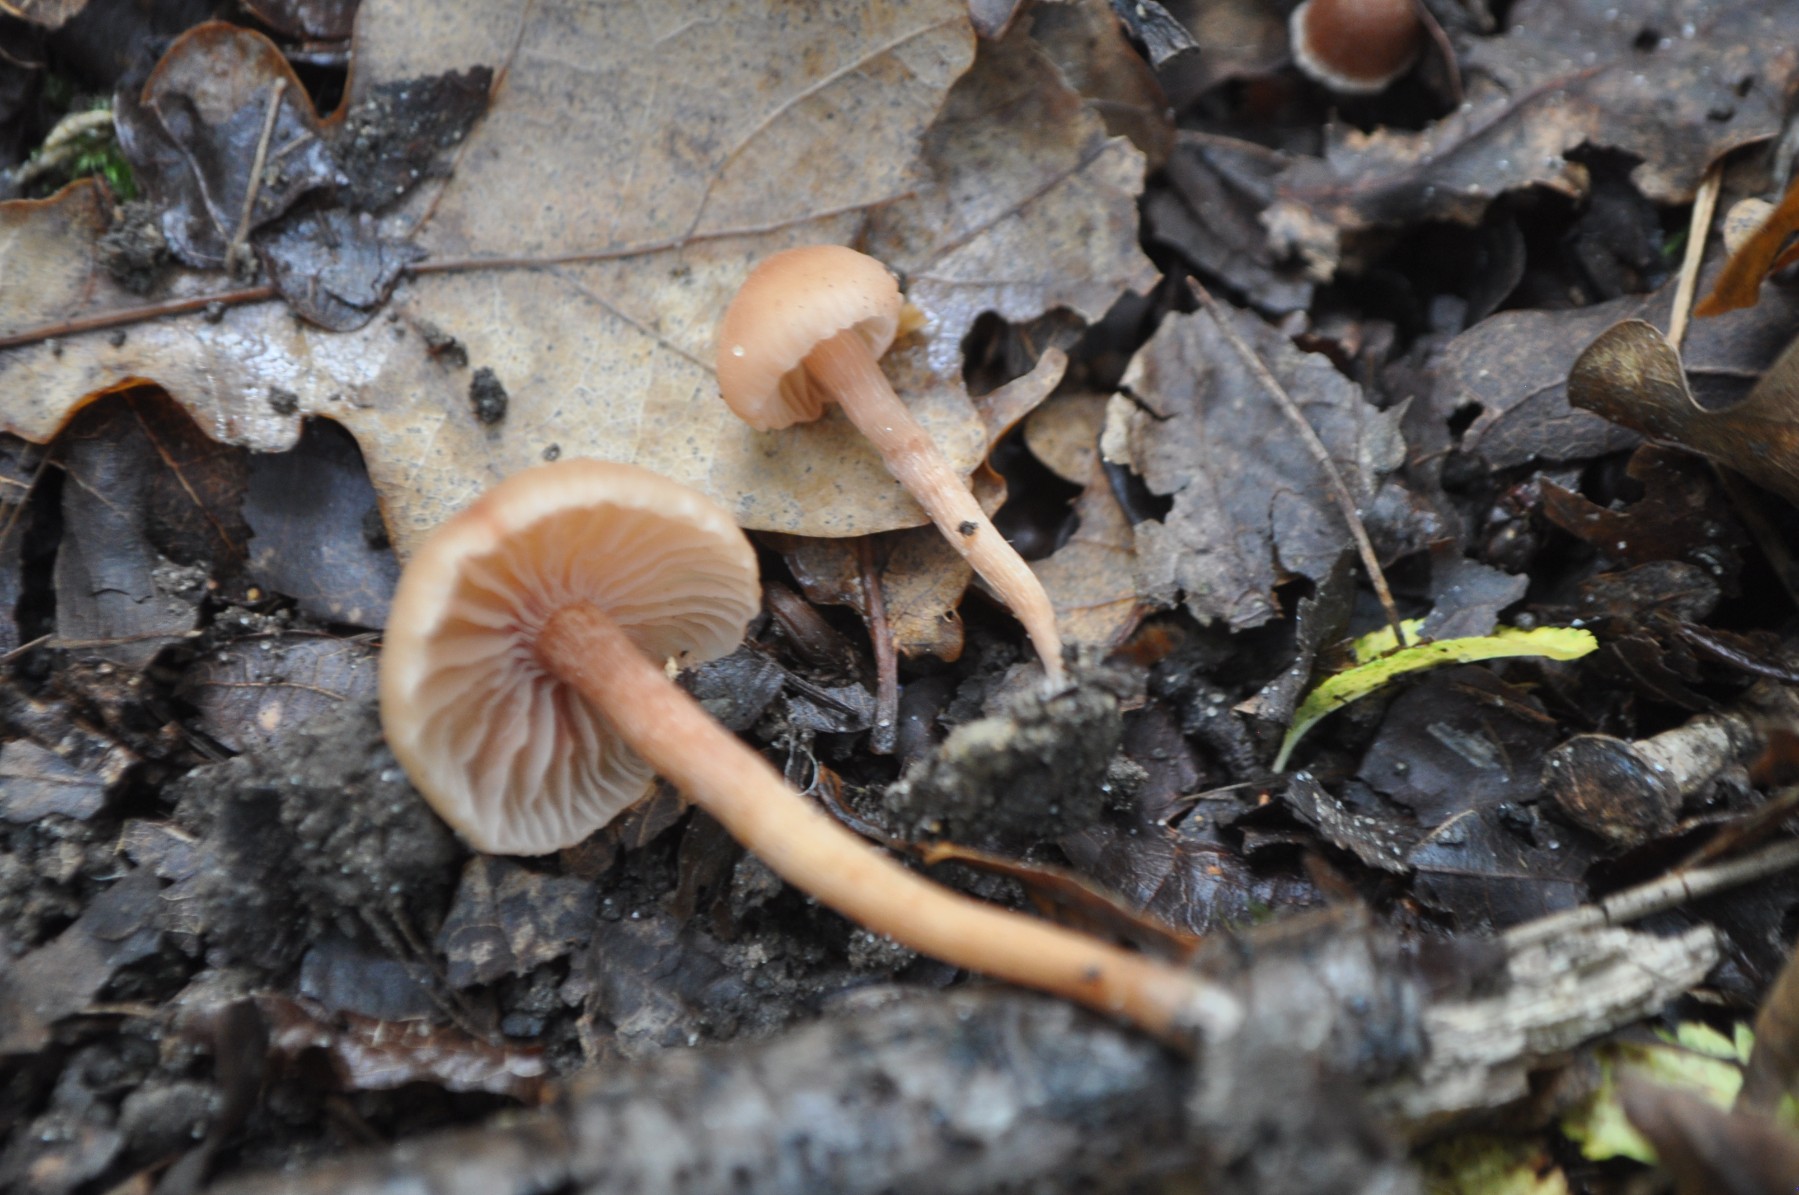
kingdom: Fungi
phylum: Basidiomycota
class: Agaricomycetes
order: Agaricales
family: Hydnangiaceae
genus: Laccaria
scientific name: Laccaria laccata
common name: rød ametysthat
